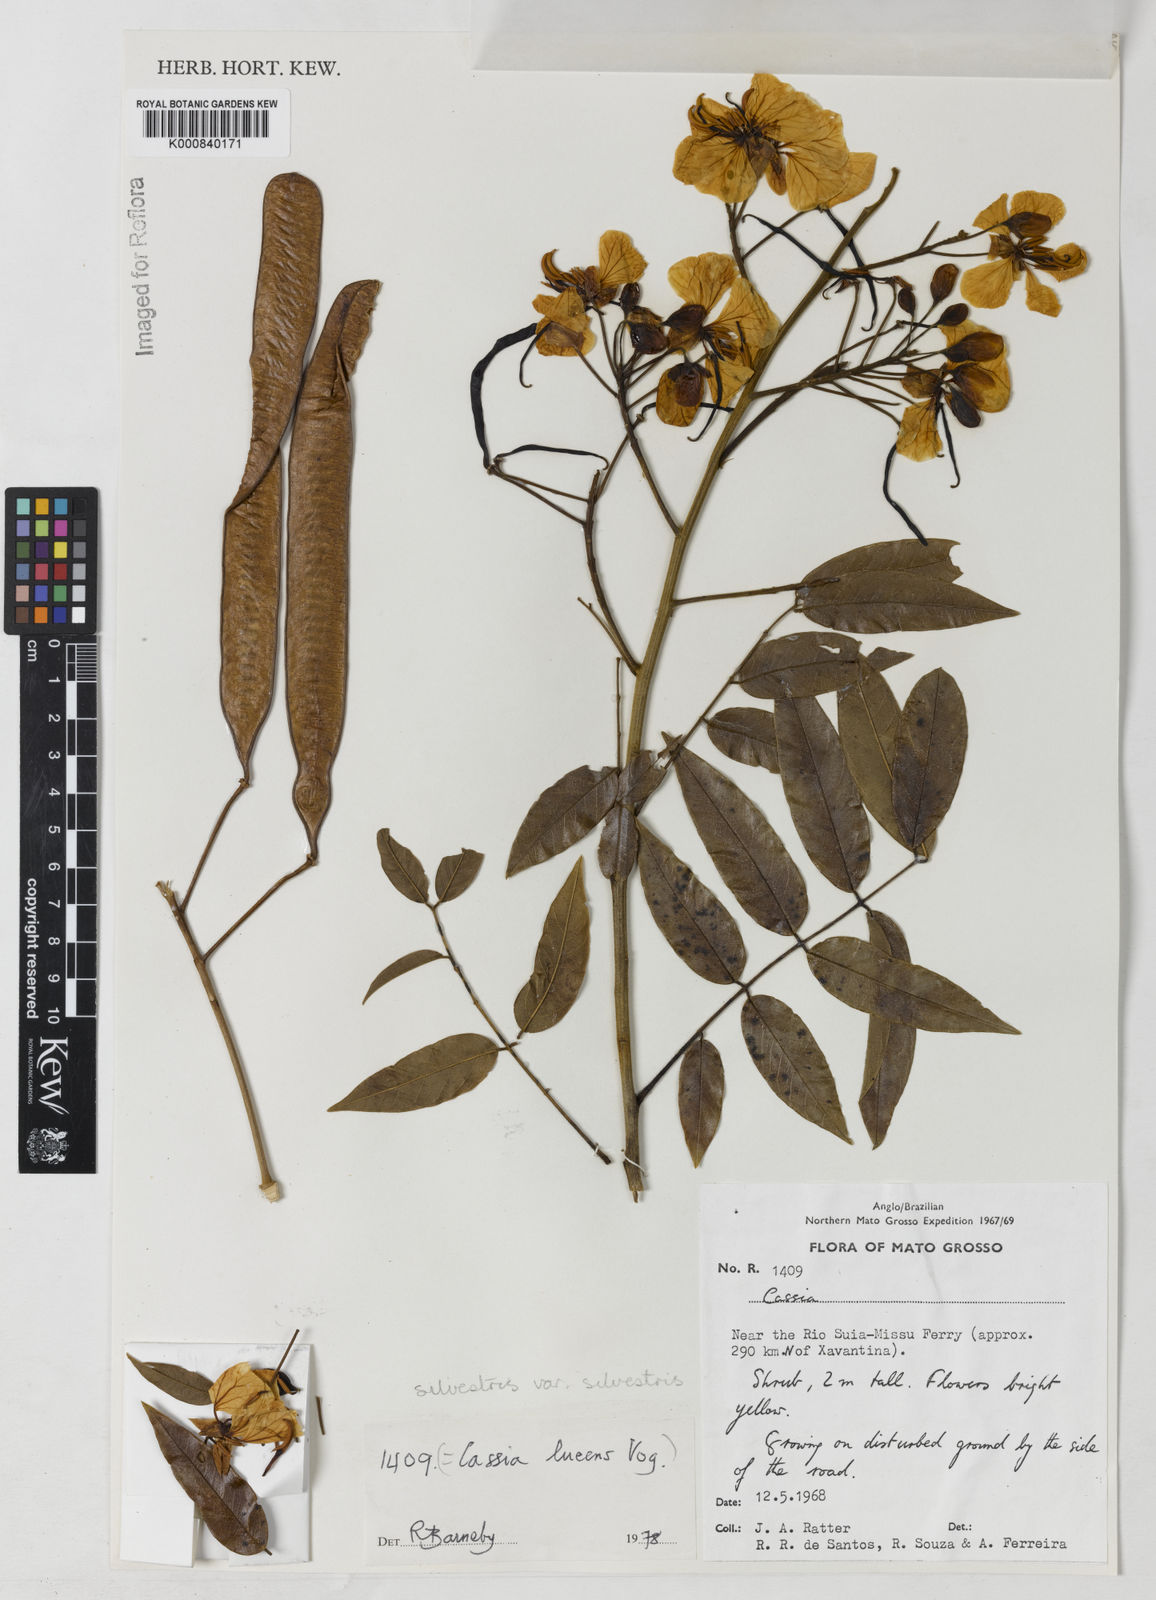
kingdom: Plantae
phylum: Tracheophyta
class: Magnoliopsida
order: Fabales
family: Fabaceae
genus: Senna
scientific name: Senna silvestris
